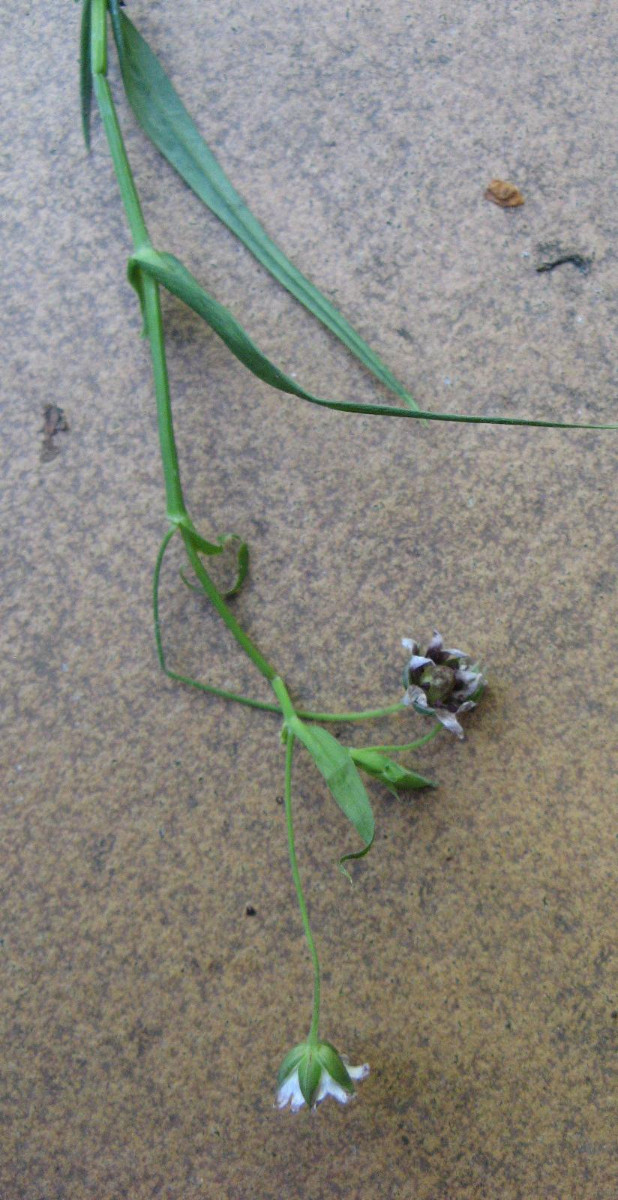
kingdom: Fungi
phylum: Basidiomycota
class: Microbotryomycetes
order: Microbotryales
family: Microbotryaceae
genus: Microbotryum
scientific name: Microbotryum stellariae
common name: fladstjerne-støvbladrust
